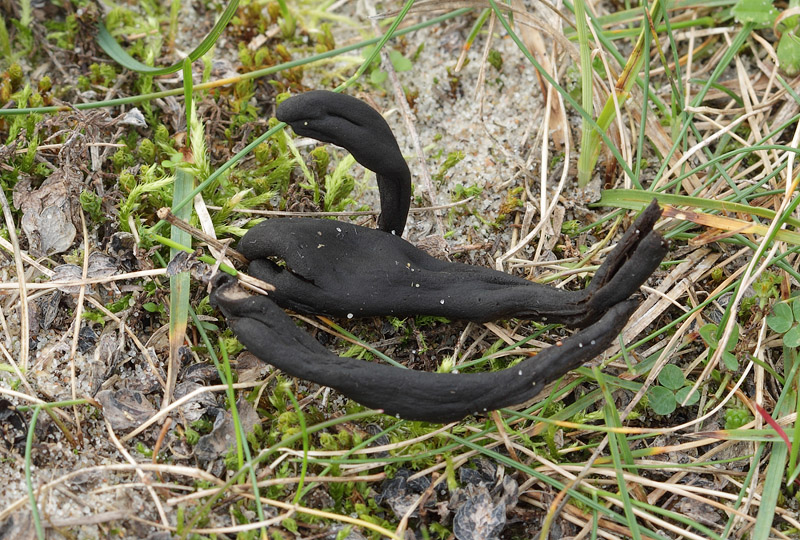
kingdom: Fungi
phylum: Ascomycota
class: Geoglossomycetes
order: Geoglossales
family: Geoglossaceae
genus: Geoglossum
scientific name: Geoglossum cookeianum
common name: bred jordtunge
